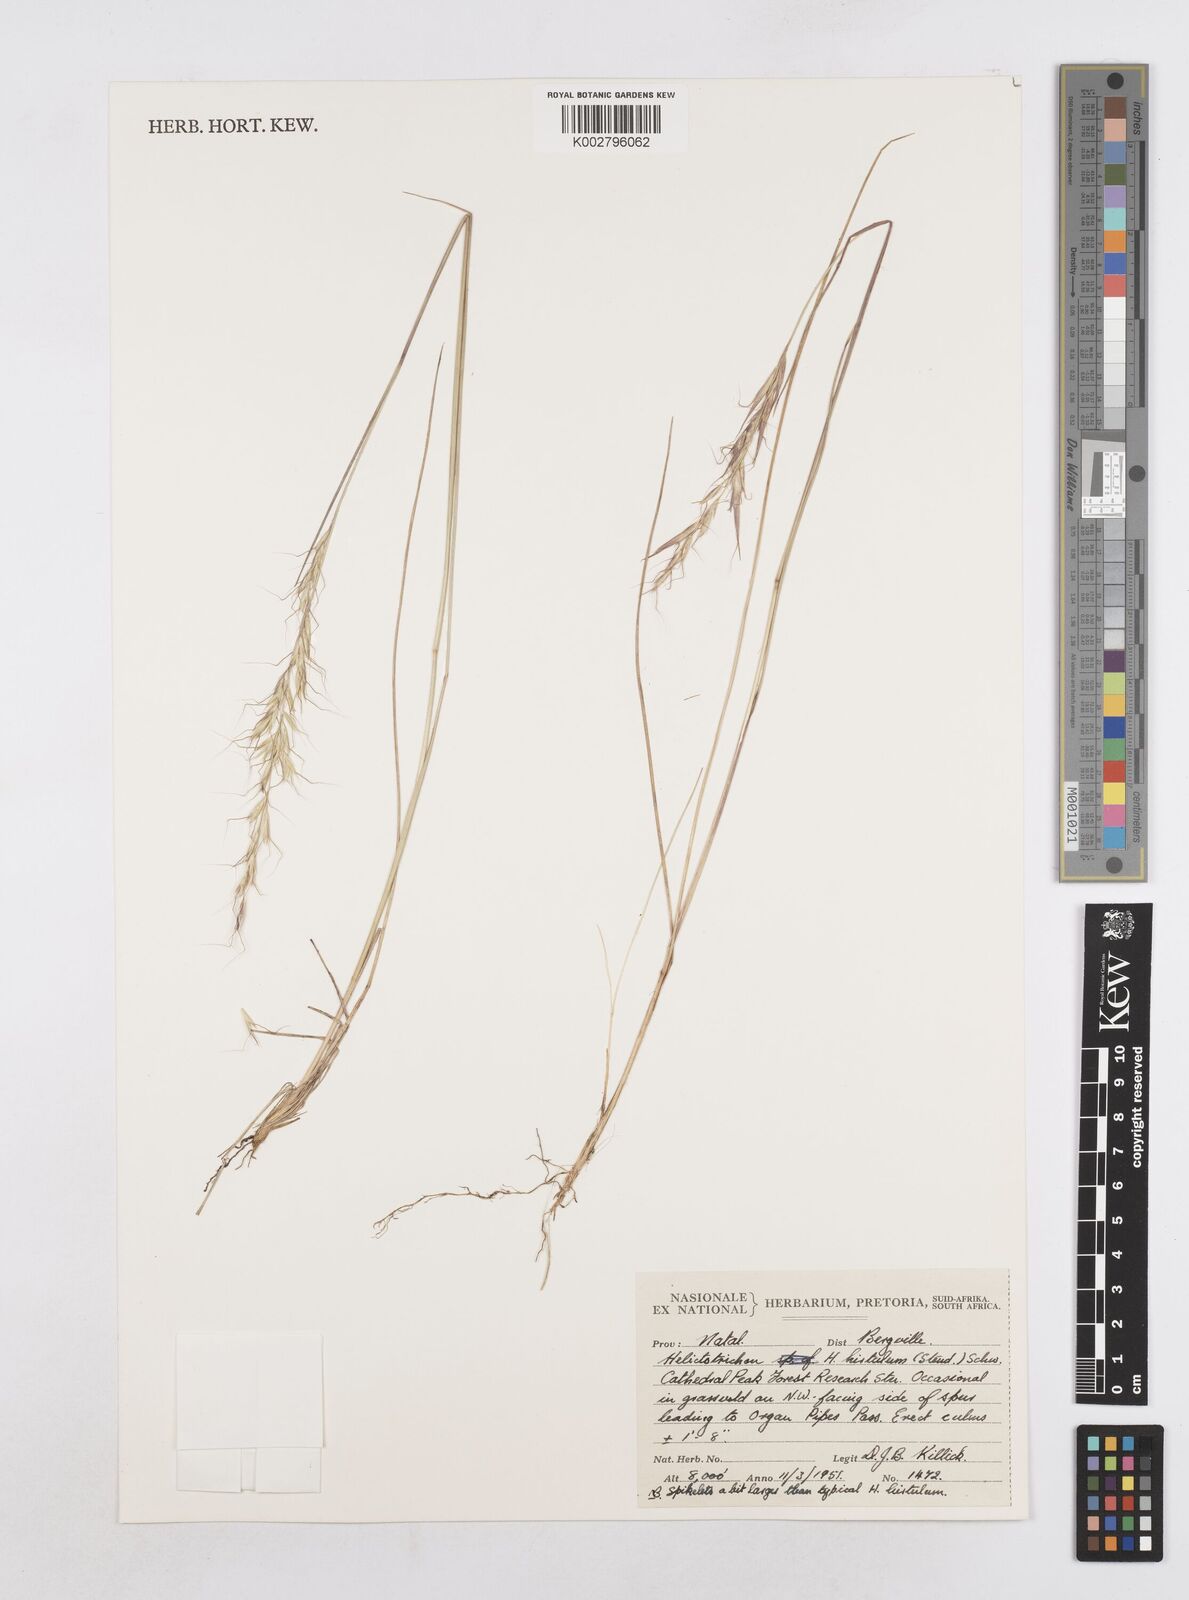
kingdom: Plantae
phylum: Tracheophyta
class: Liliopsida
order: Poales
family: Poaceae
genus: Trisetopsis
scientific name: Trisetopsis hirtula
